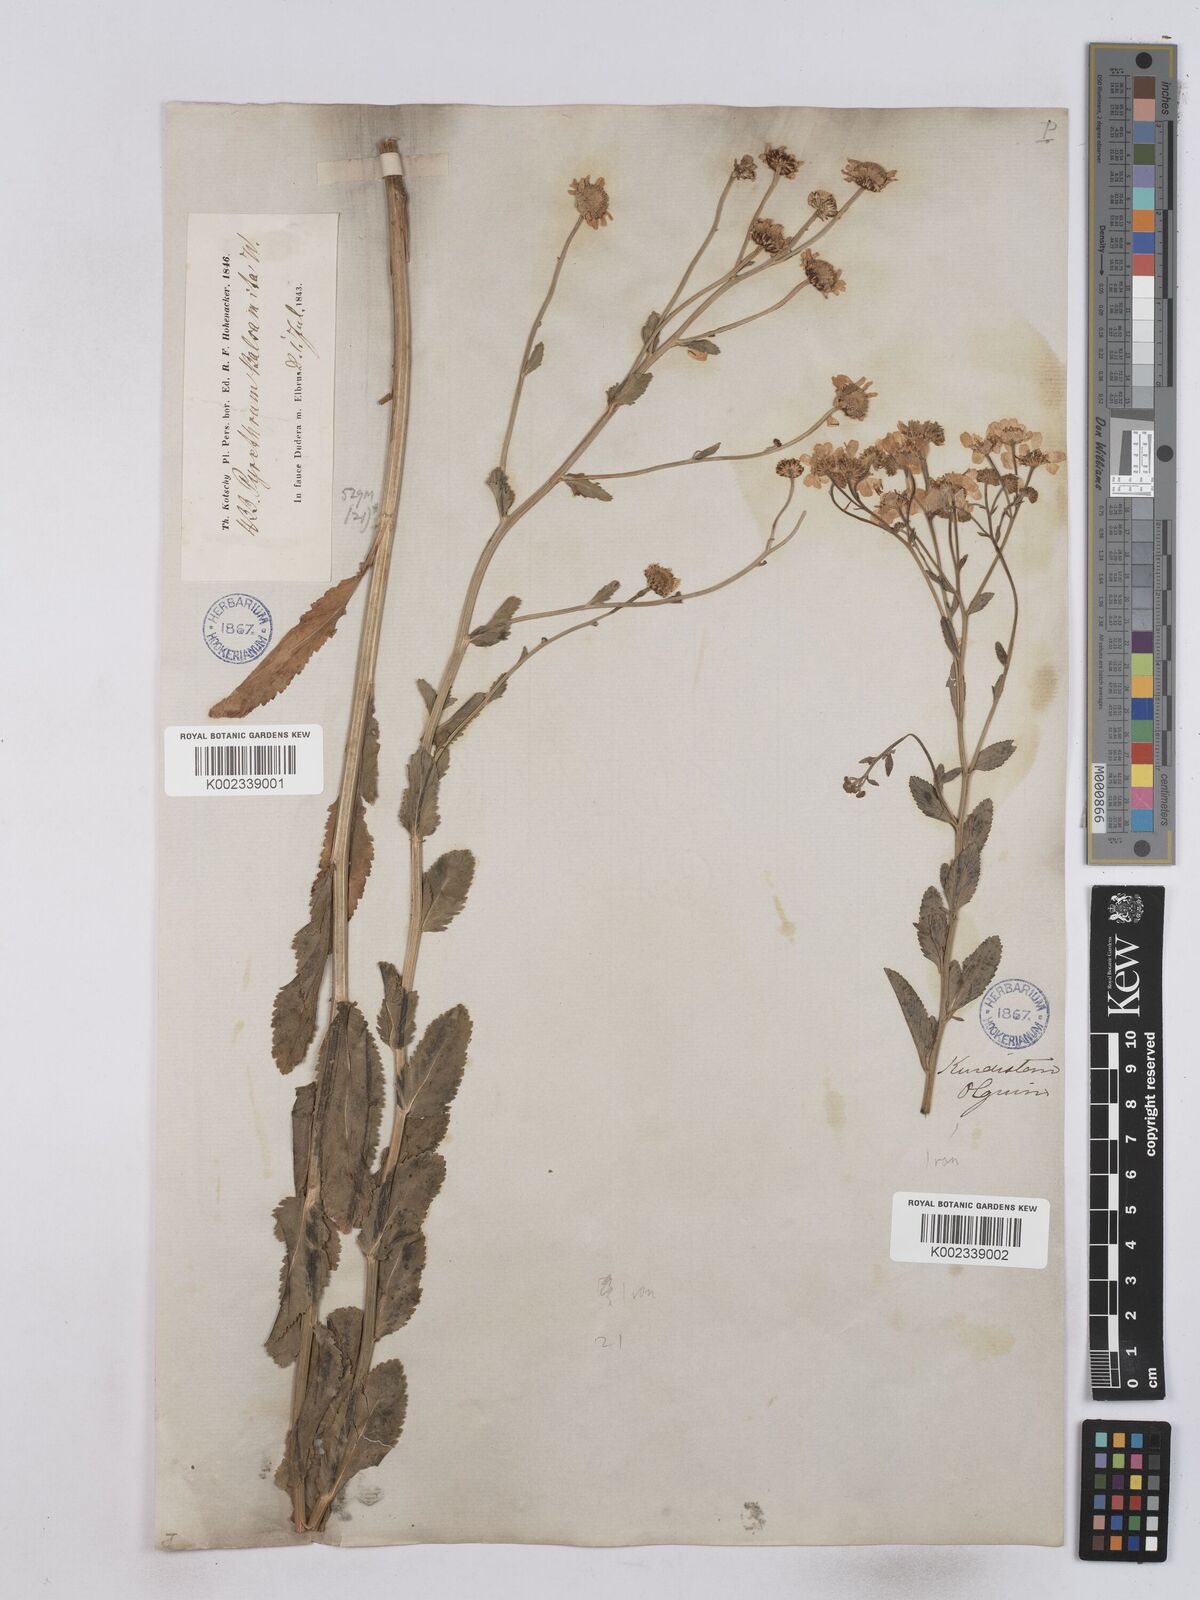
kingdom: Plantae
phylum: Tracheophyta
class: Magnoliopsida
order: Asterales
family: Asteraceae
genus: Tanacetum
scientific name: Tanacetum balsamita
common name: Costmary
